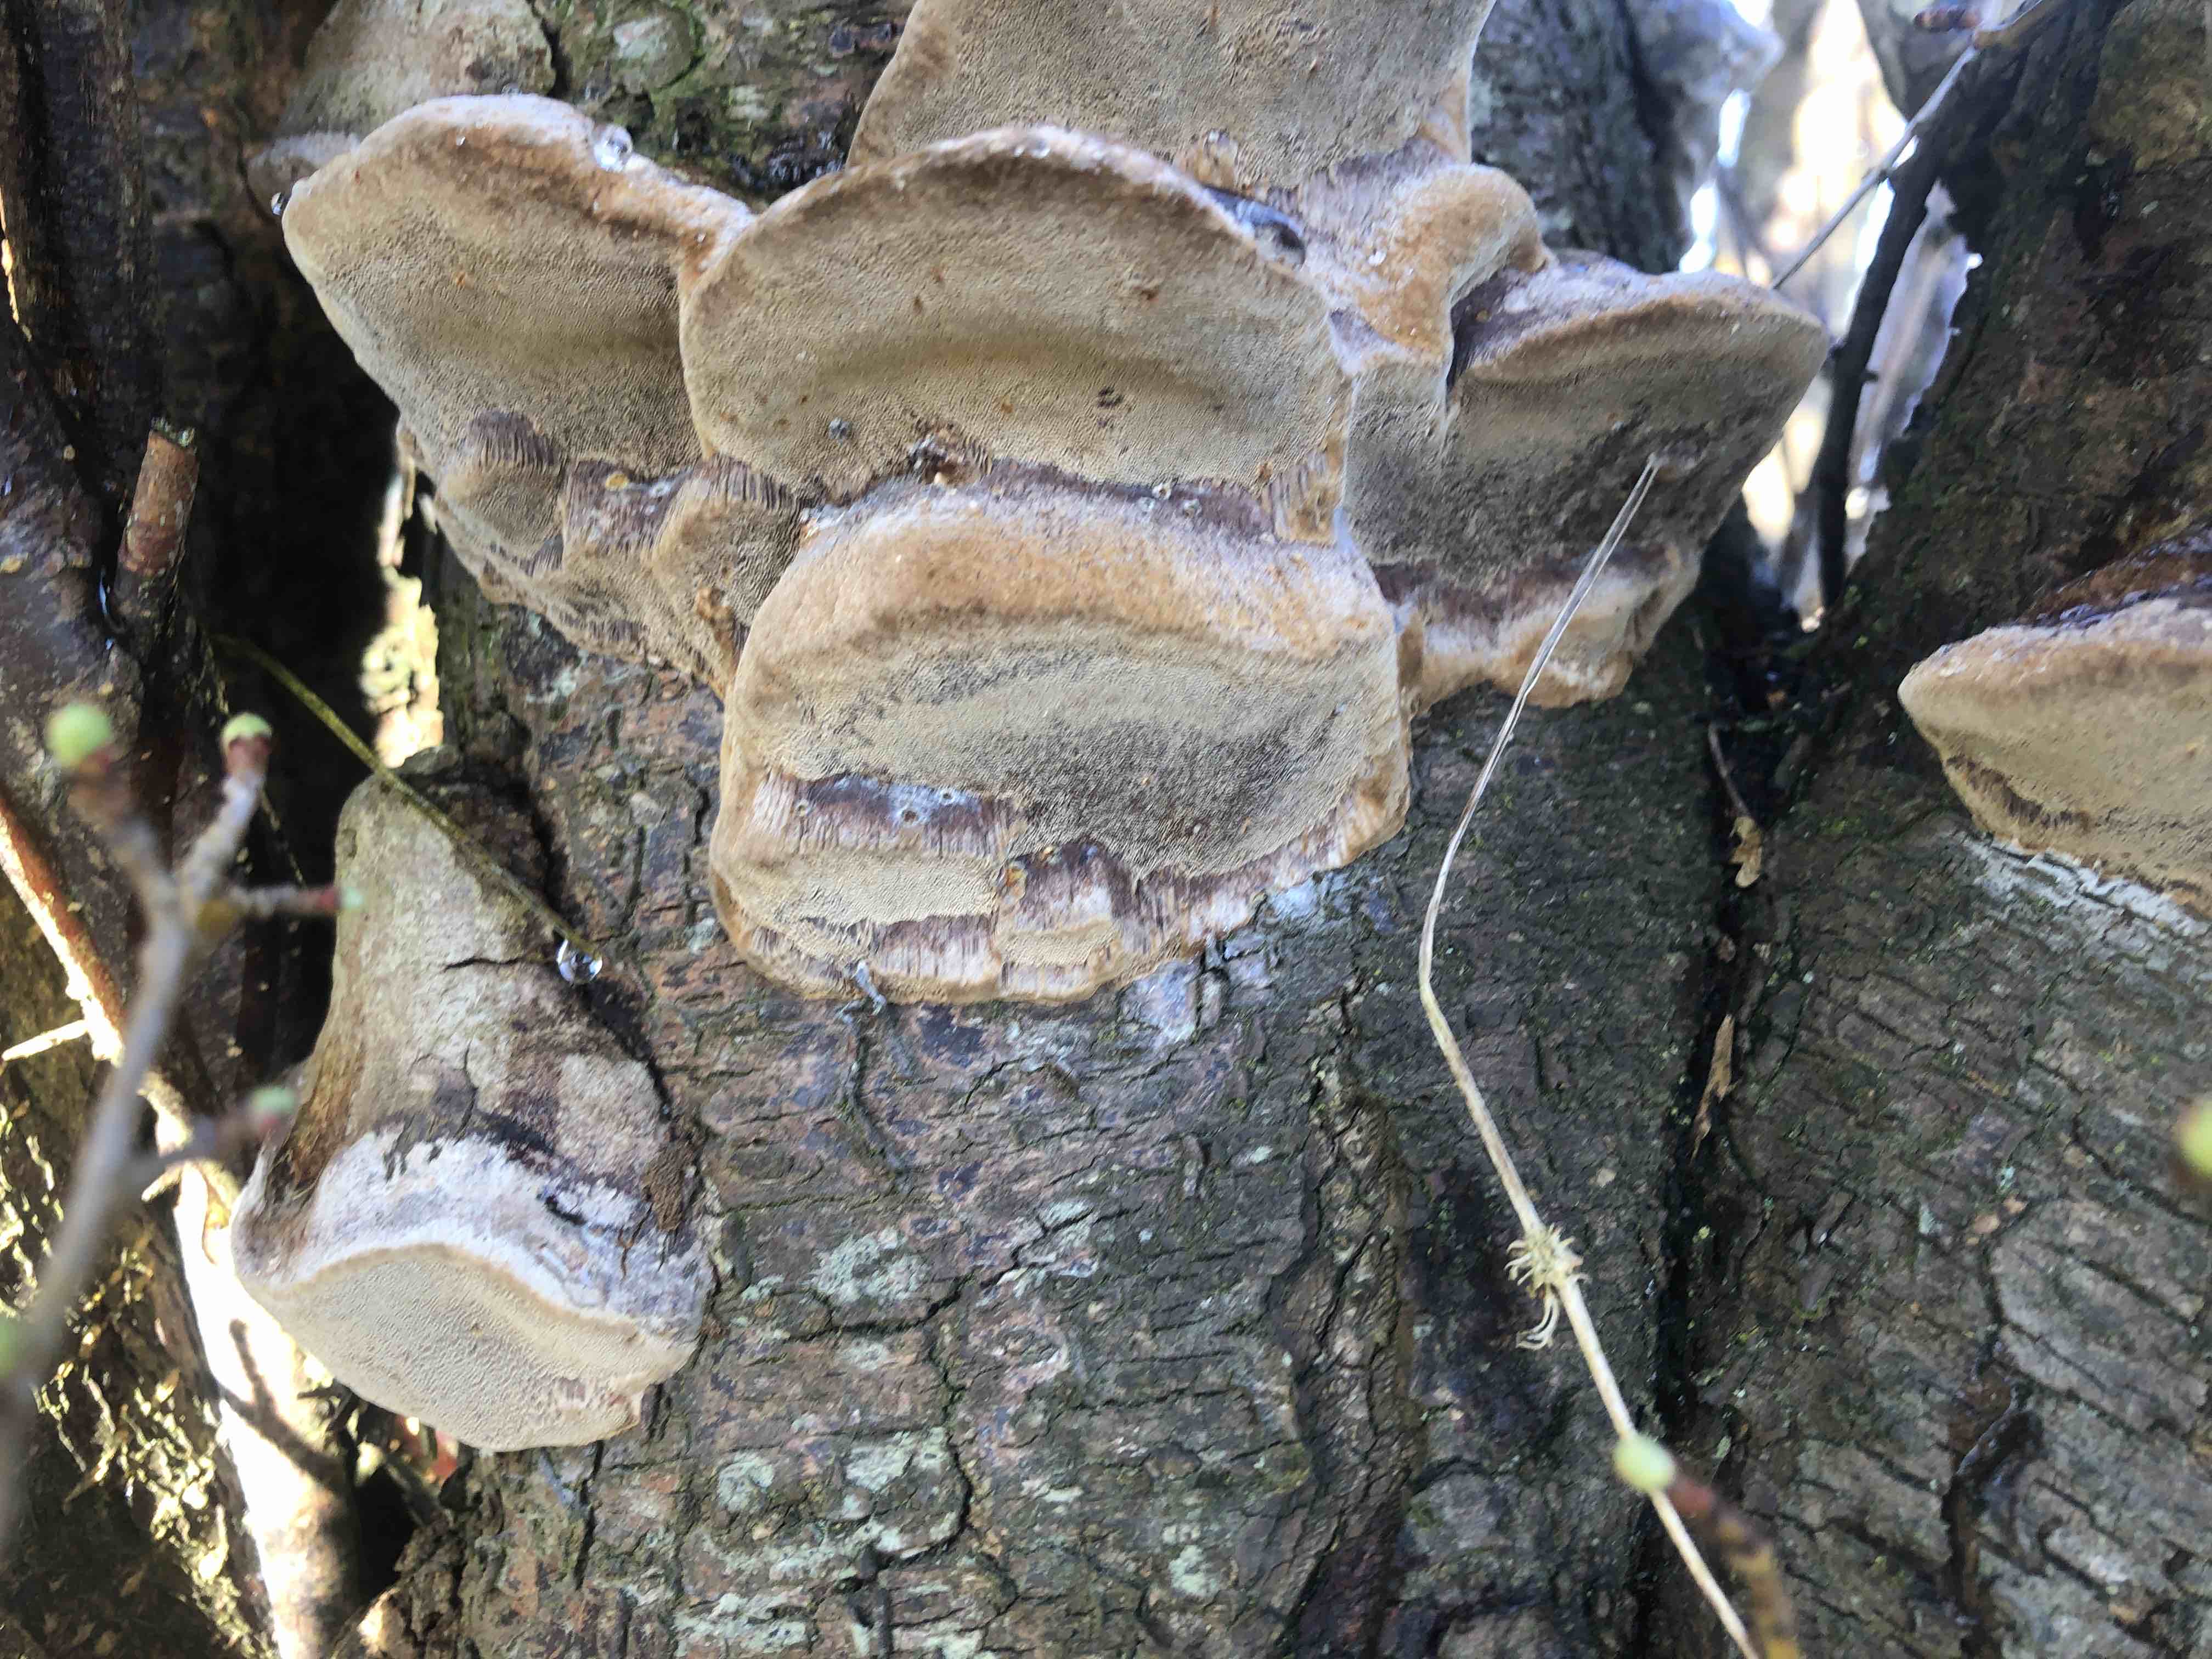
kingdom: Fungi
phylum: Basidiomycota
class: Agaricomycetes
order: Hymenochaetales
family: Hymenochaetaceae
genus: Phellinus
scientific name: Phellinus pomaceus
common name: blomme-ildporesvamp
